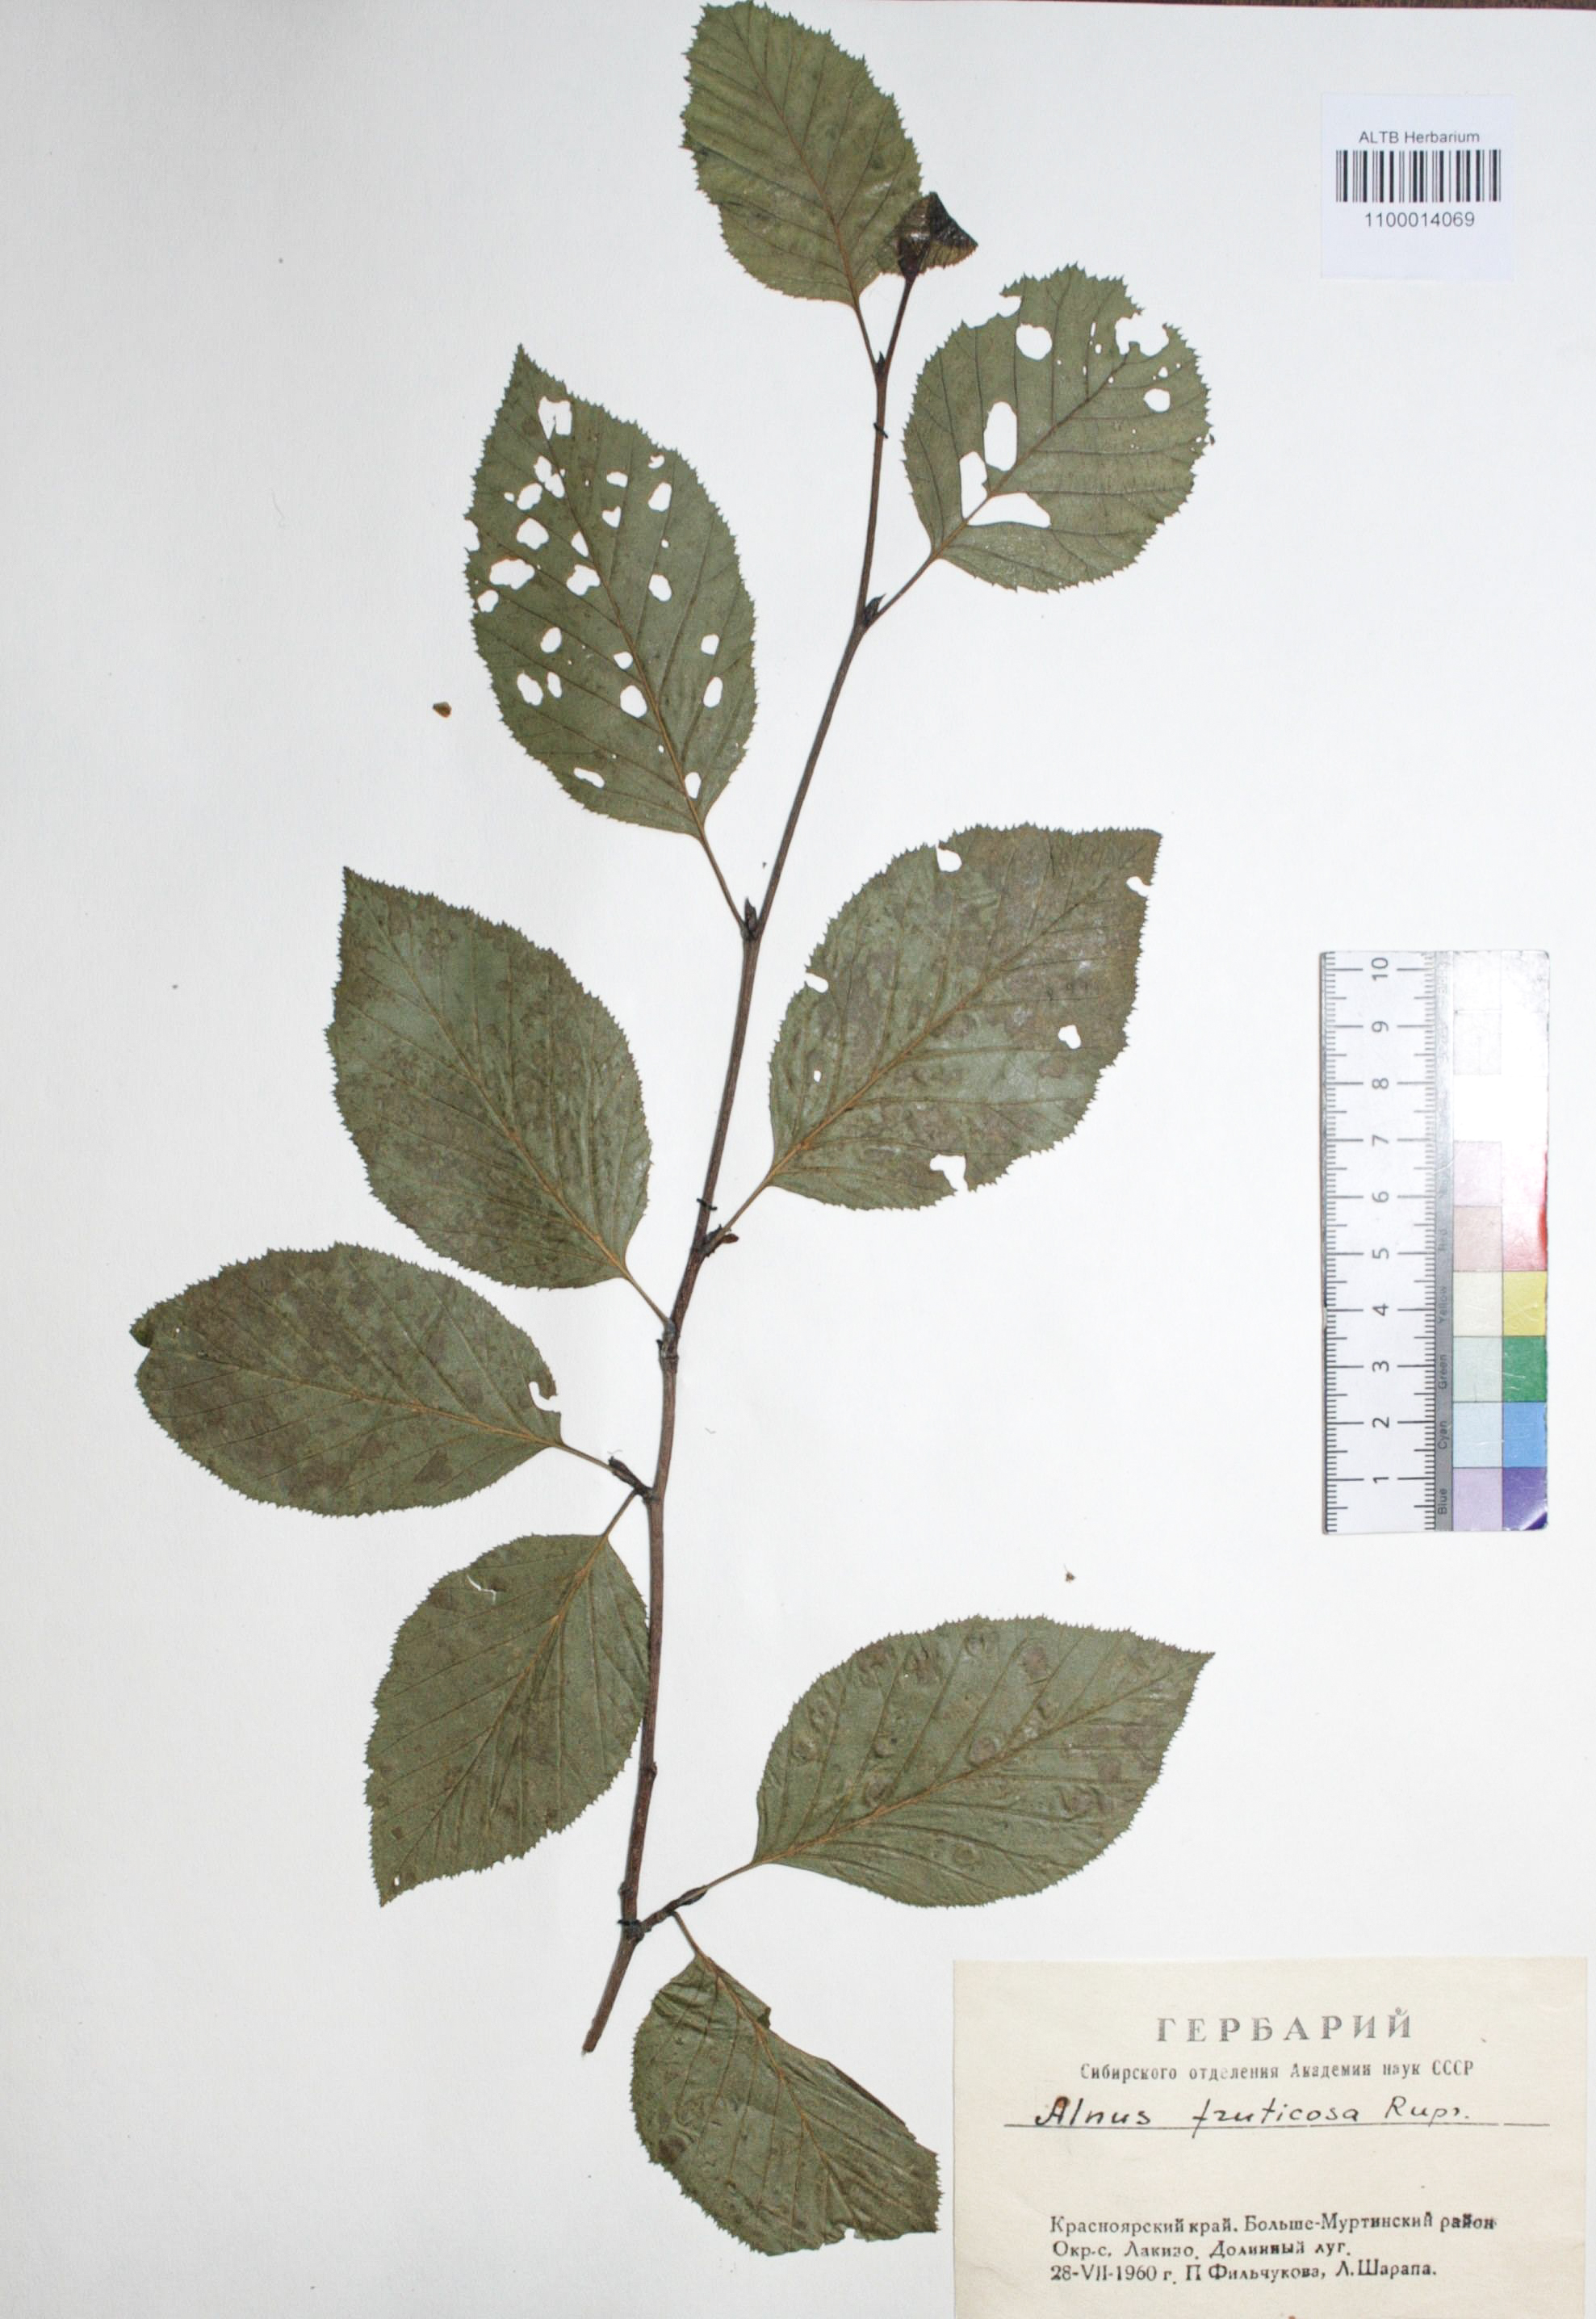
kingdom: Plantae
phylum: Tracheophyta
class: Magnoliopsida
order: Fagales
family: Betulaceae
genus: Alnus
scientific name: Alnus alnobetula
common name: Green alder
